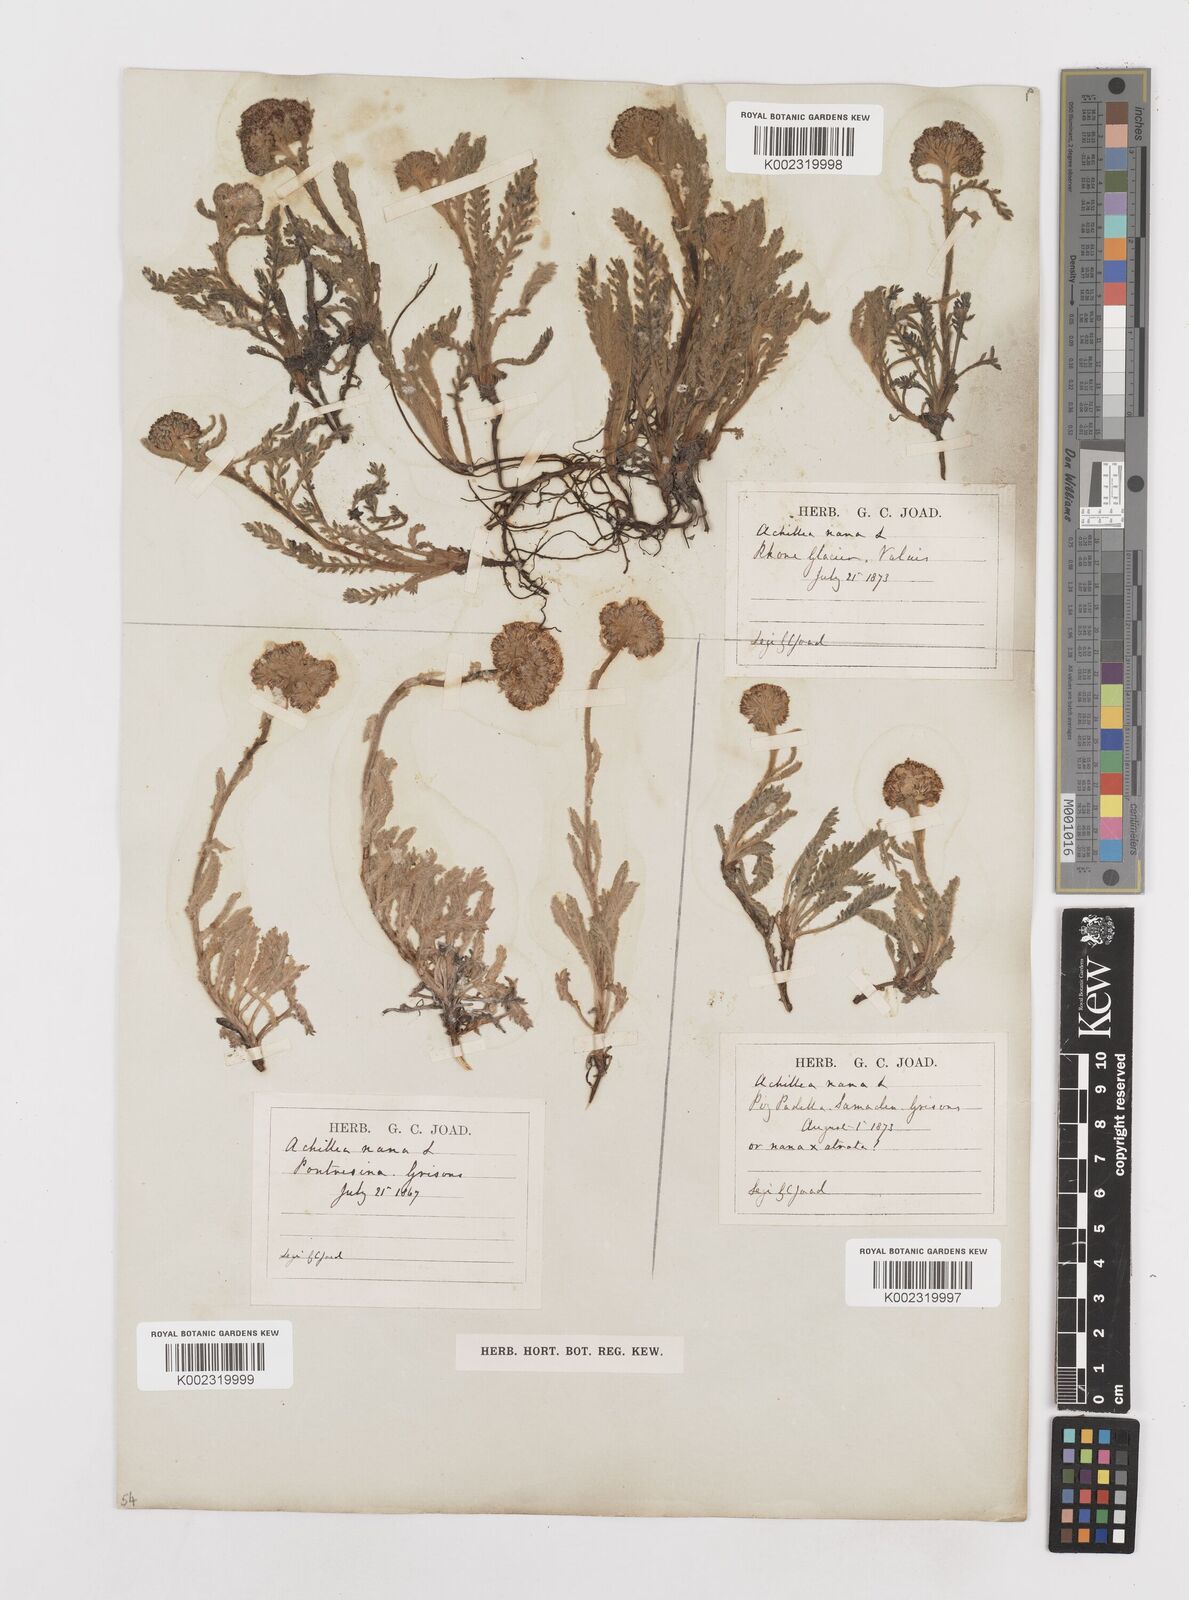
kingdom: Plantae
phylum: Tracheophyta
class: Magnoliopsida
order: Asterales
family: Asteraceae
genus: Achillea
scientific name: Achillea nana
